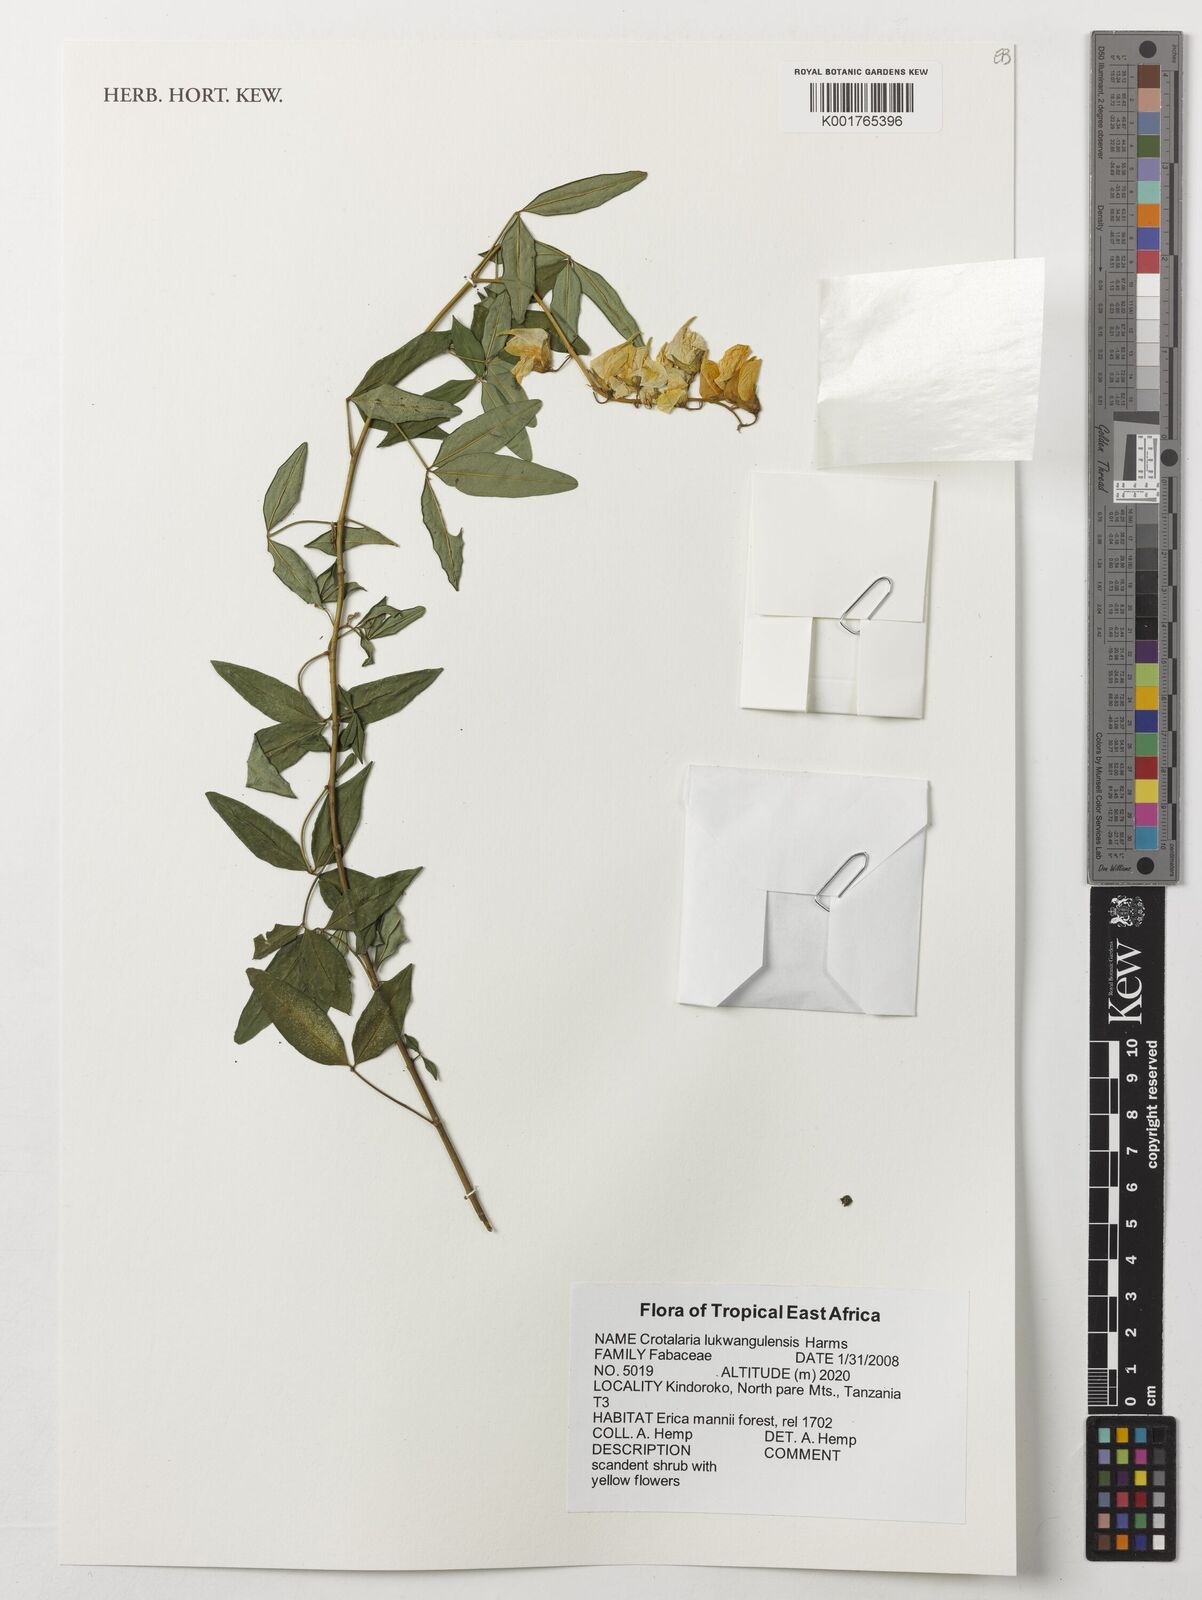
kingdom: Plantae
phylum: Tracheophyta
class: Magnoliopsida
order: Fabales
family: Fabaceae
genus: Crotalaria
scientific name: Crotalaria lukwangulensis
